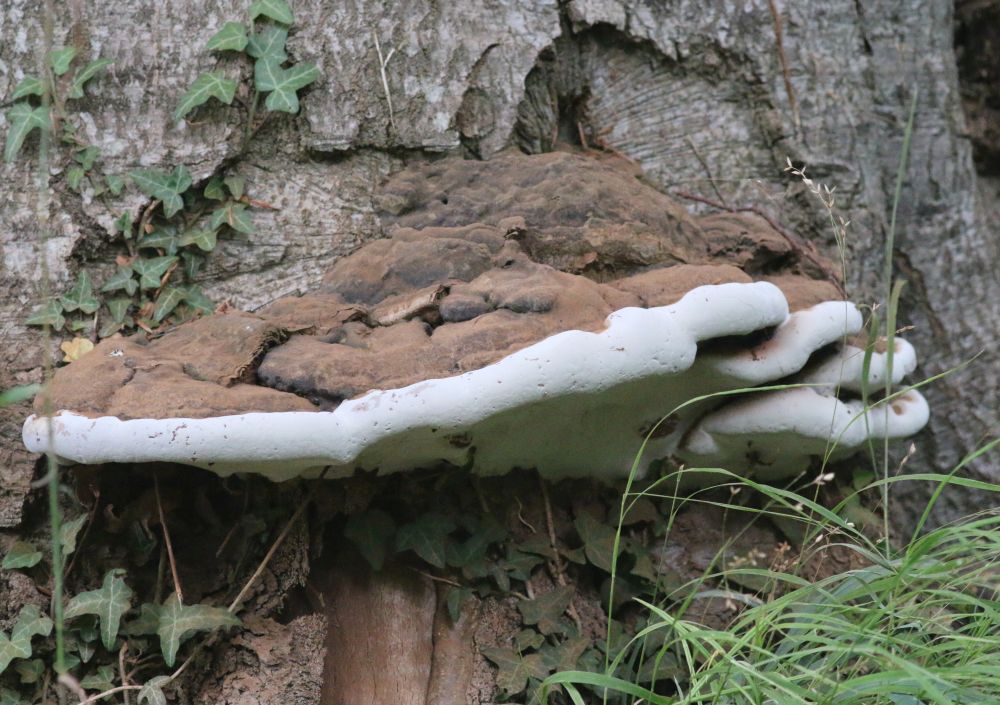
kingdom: Fungi
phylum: Basidiomycota
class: Agaricomycetes
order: Polyporales
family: Polyporaceae
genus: Ganoderma
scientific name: Ganoderma pfeifferi
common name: kobberrød lakporesvamp
